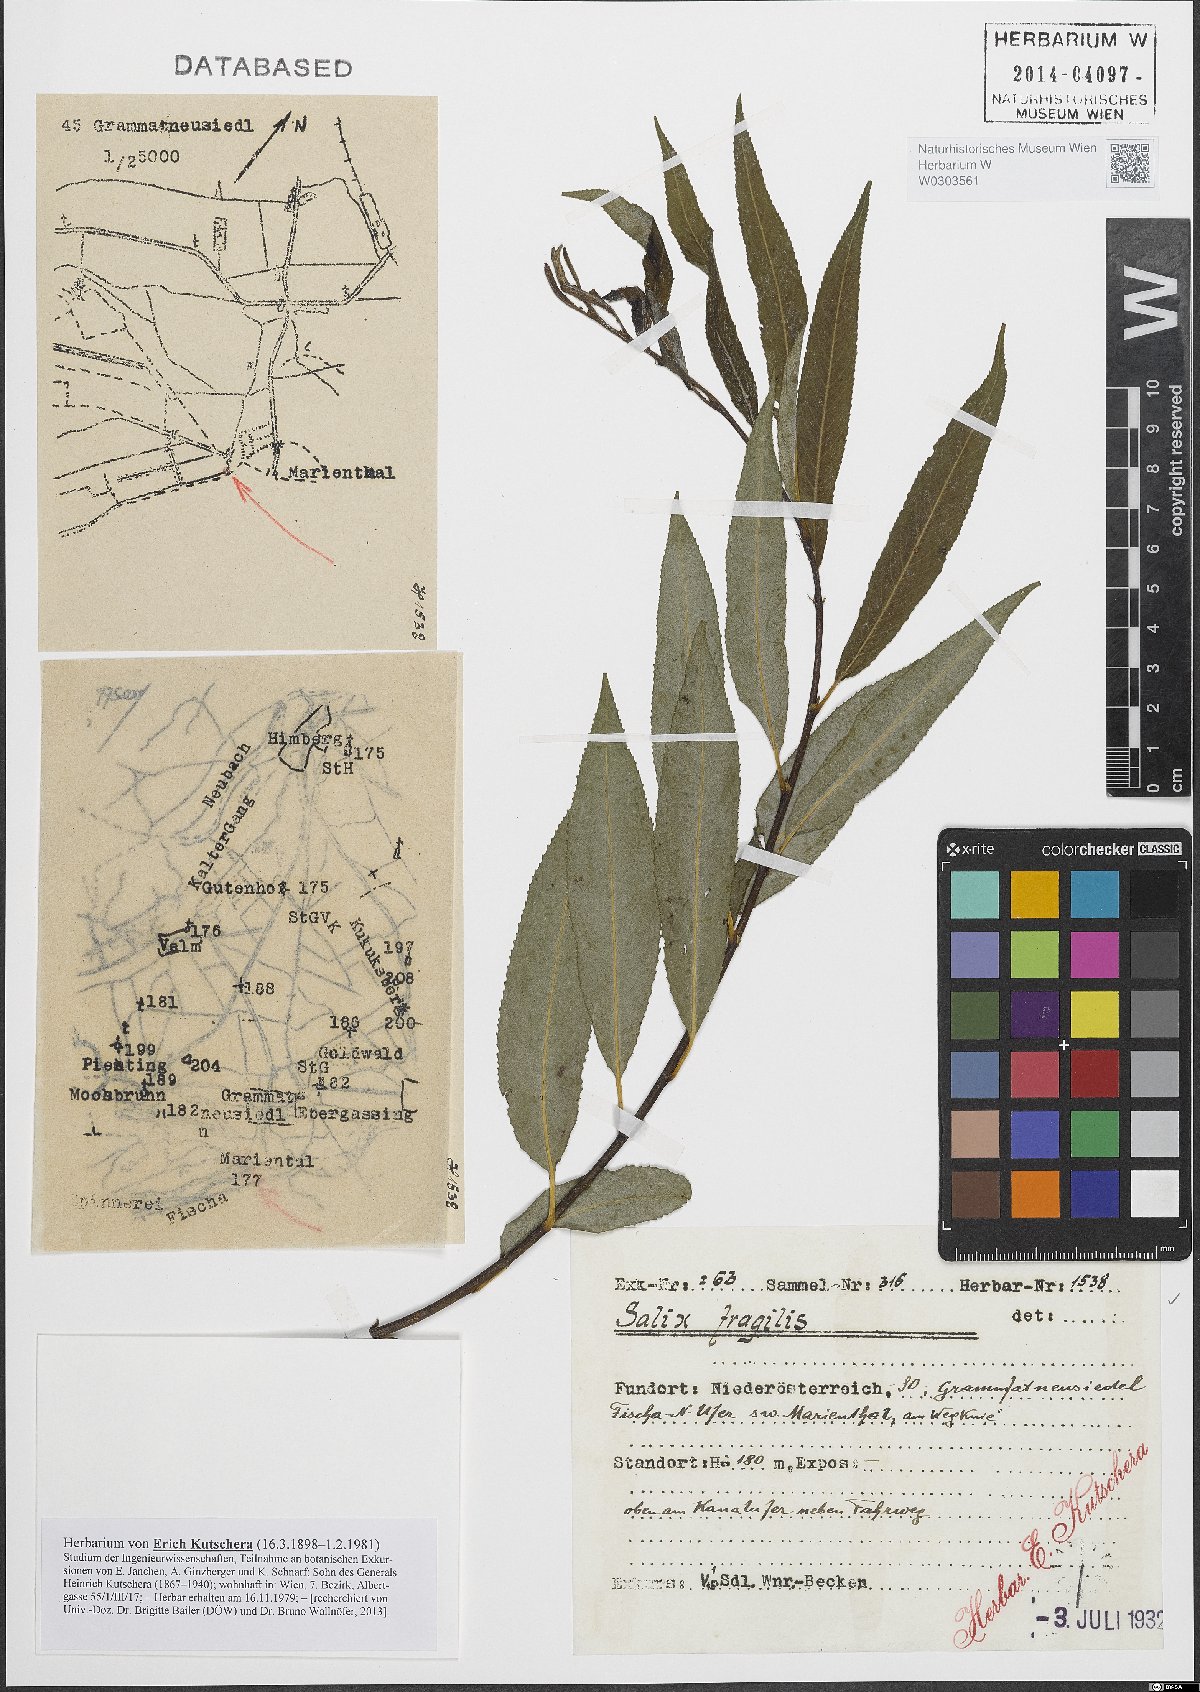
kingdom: Plantae
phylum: Tracheophyta
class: Magnoliopsida
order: Malpighiales
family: Salicaceae
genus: Salix
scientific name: Salix fragilis
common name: Crack willow
